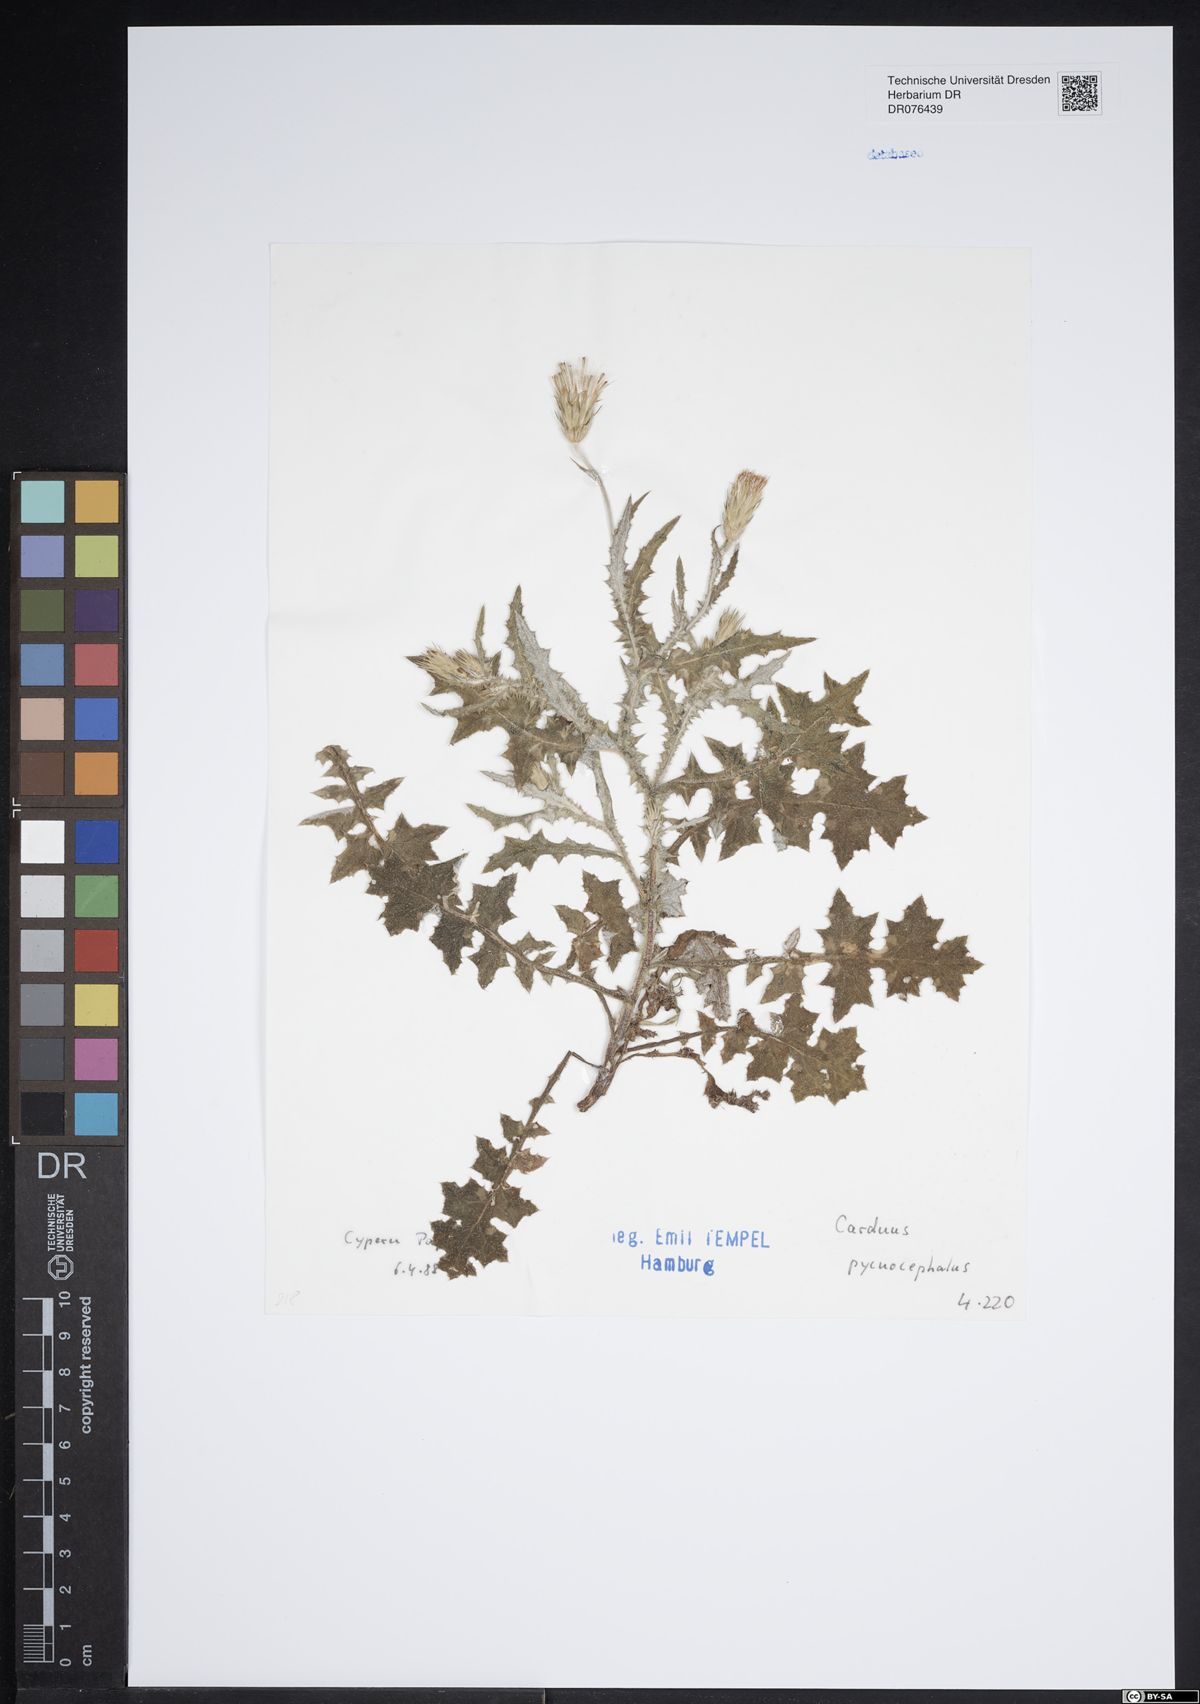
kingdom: Plantae
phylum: Tracheophyta
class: Magnoliopsida
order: Asterales
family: Asteraceae
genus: Carduus
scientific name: Carduus pycnocephalus
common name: Plymouth thistle
